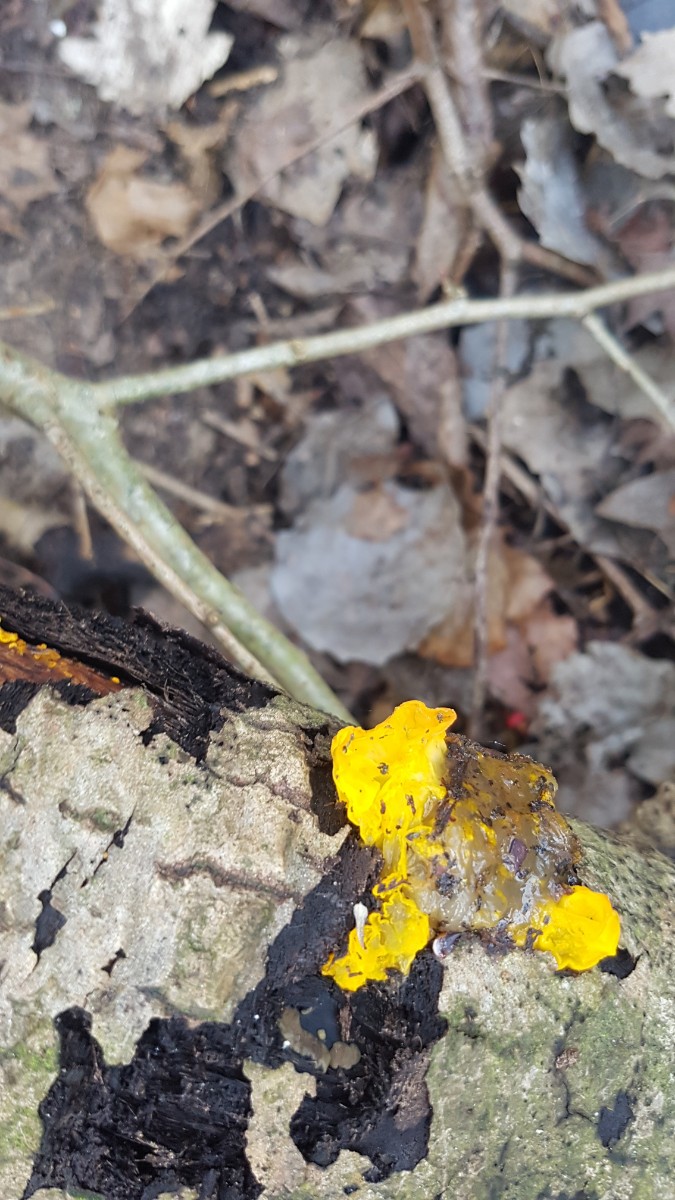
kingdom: Fungi
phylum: Basidiomycota
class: Tremellomycetes
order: Tremellales
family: Tremellaceae
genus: Tremella
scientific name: Tremella mesenterica
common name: gul bævresvamp
